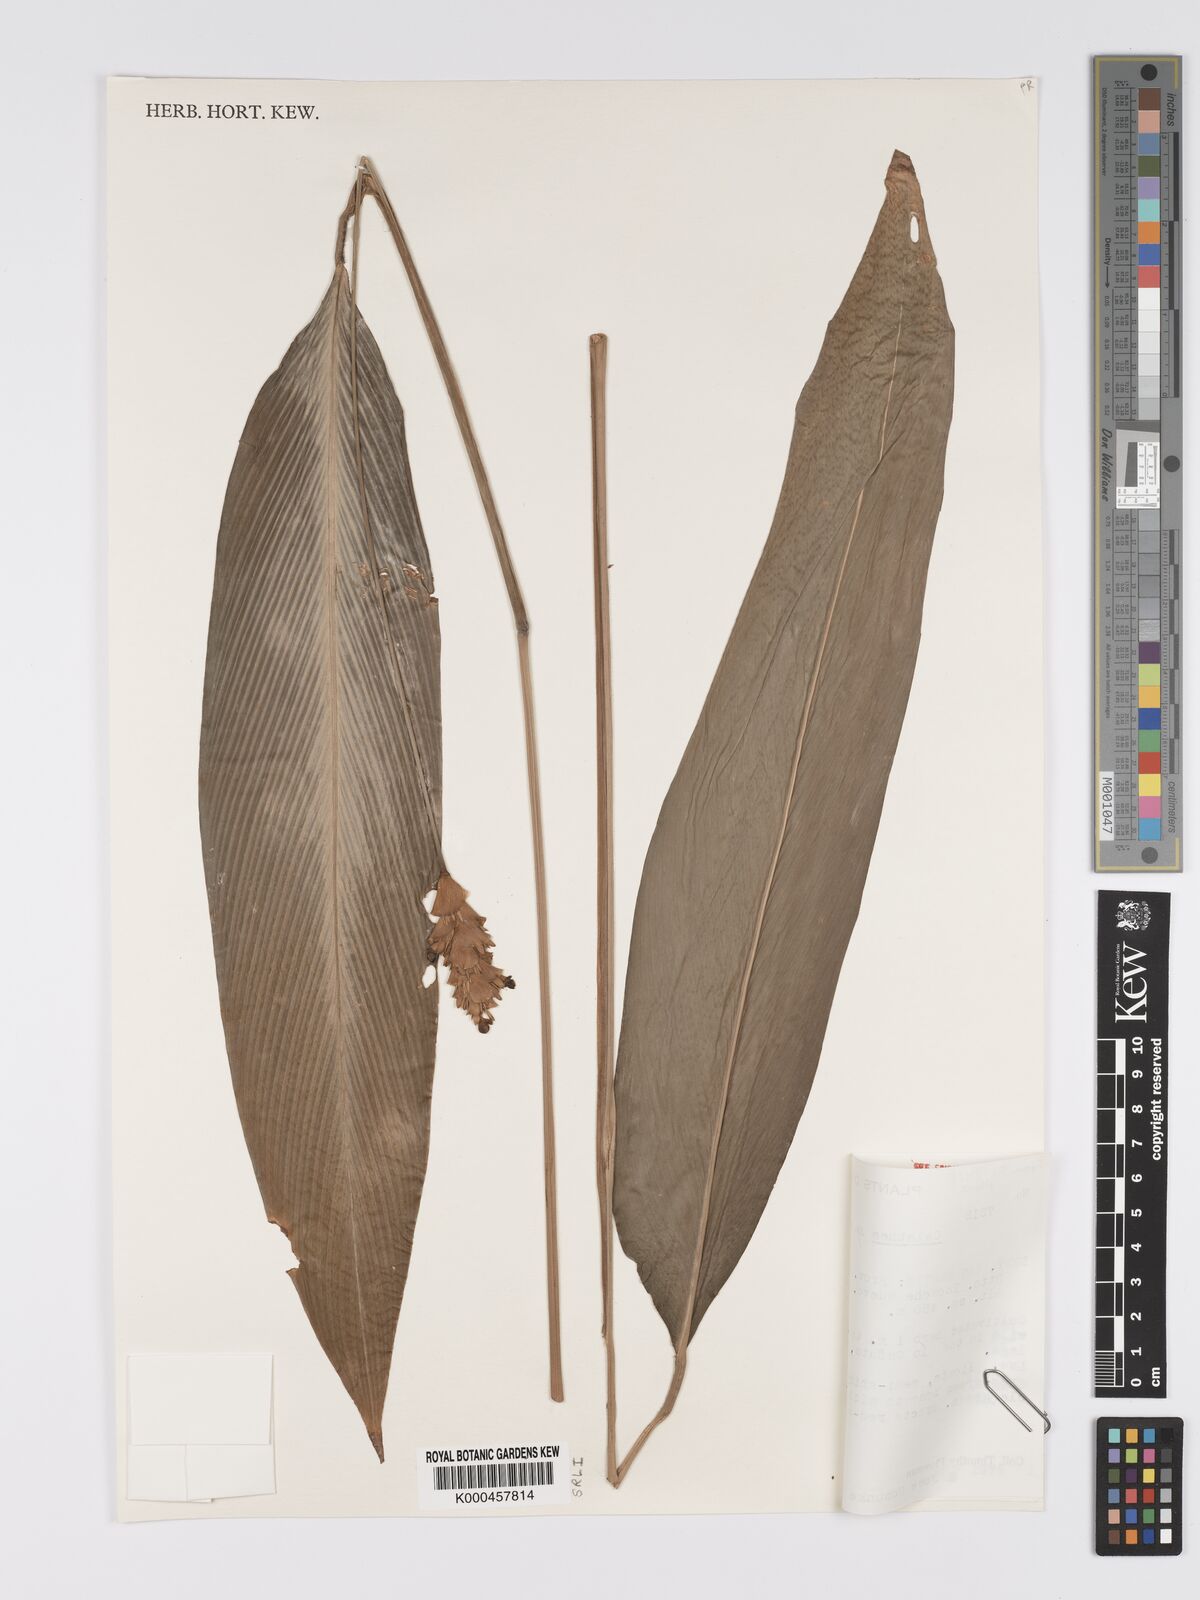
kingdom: Plantae
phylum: Tracheophyta
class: Liliopsida
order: Zingiberales
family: Marantaceae
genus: Goeppertia
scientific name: Goeppertia schunkei
